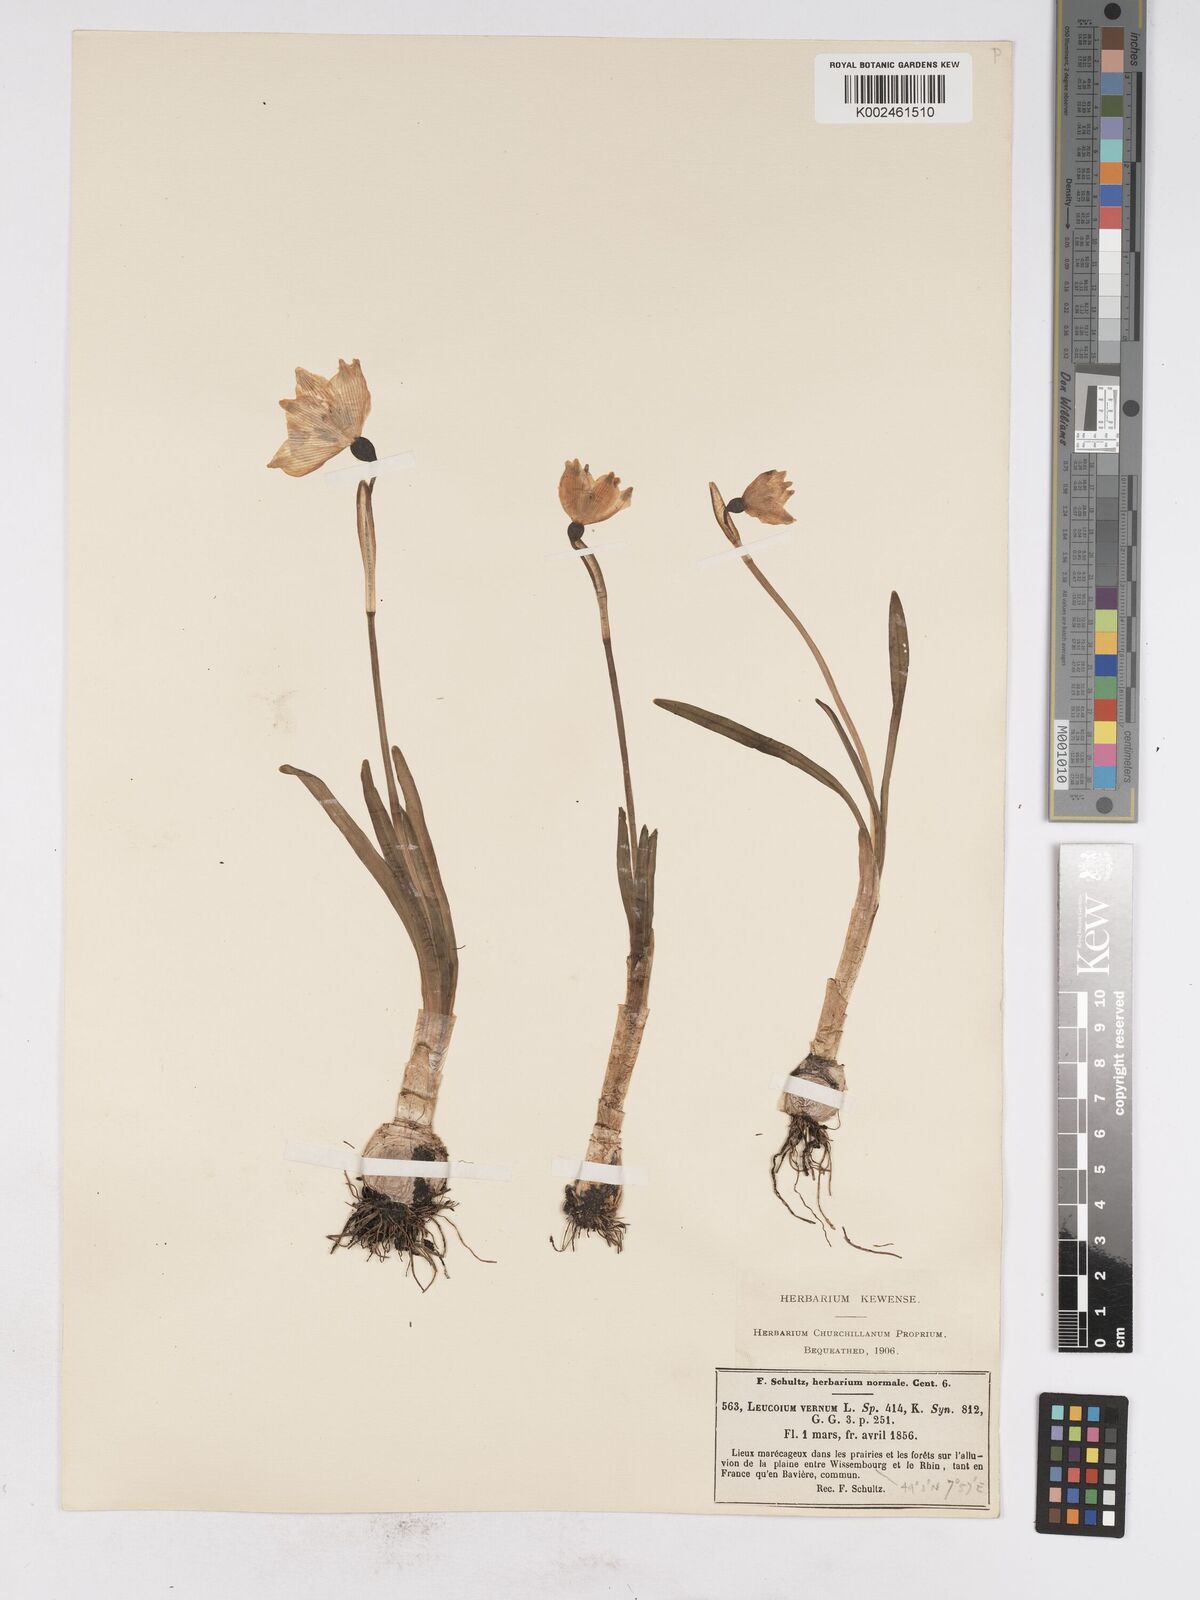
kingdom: Plantae
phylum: Tracheophyta
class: Liliopsida
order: Asparagales
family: Amaryllidaceae
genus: Leucojum
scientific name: Leucojum vernum
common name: Spring snowflake
